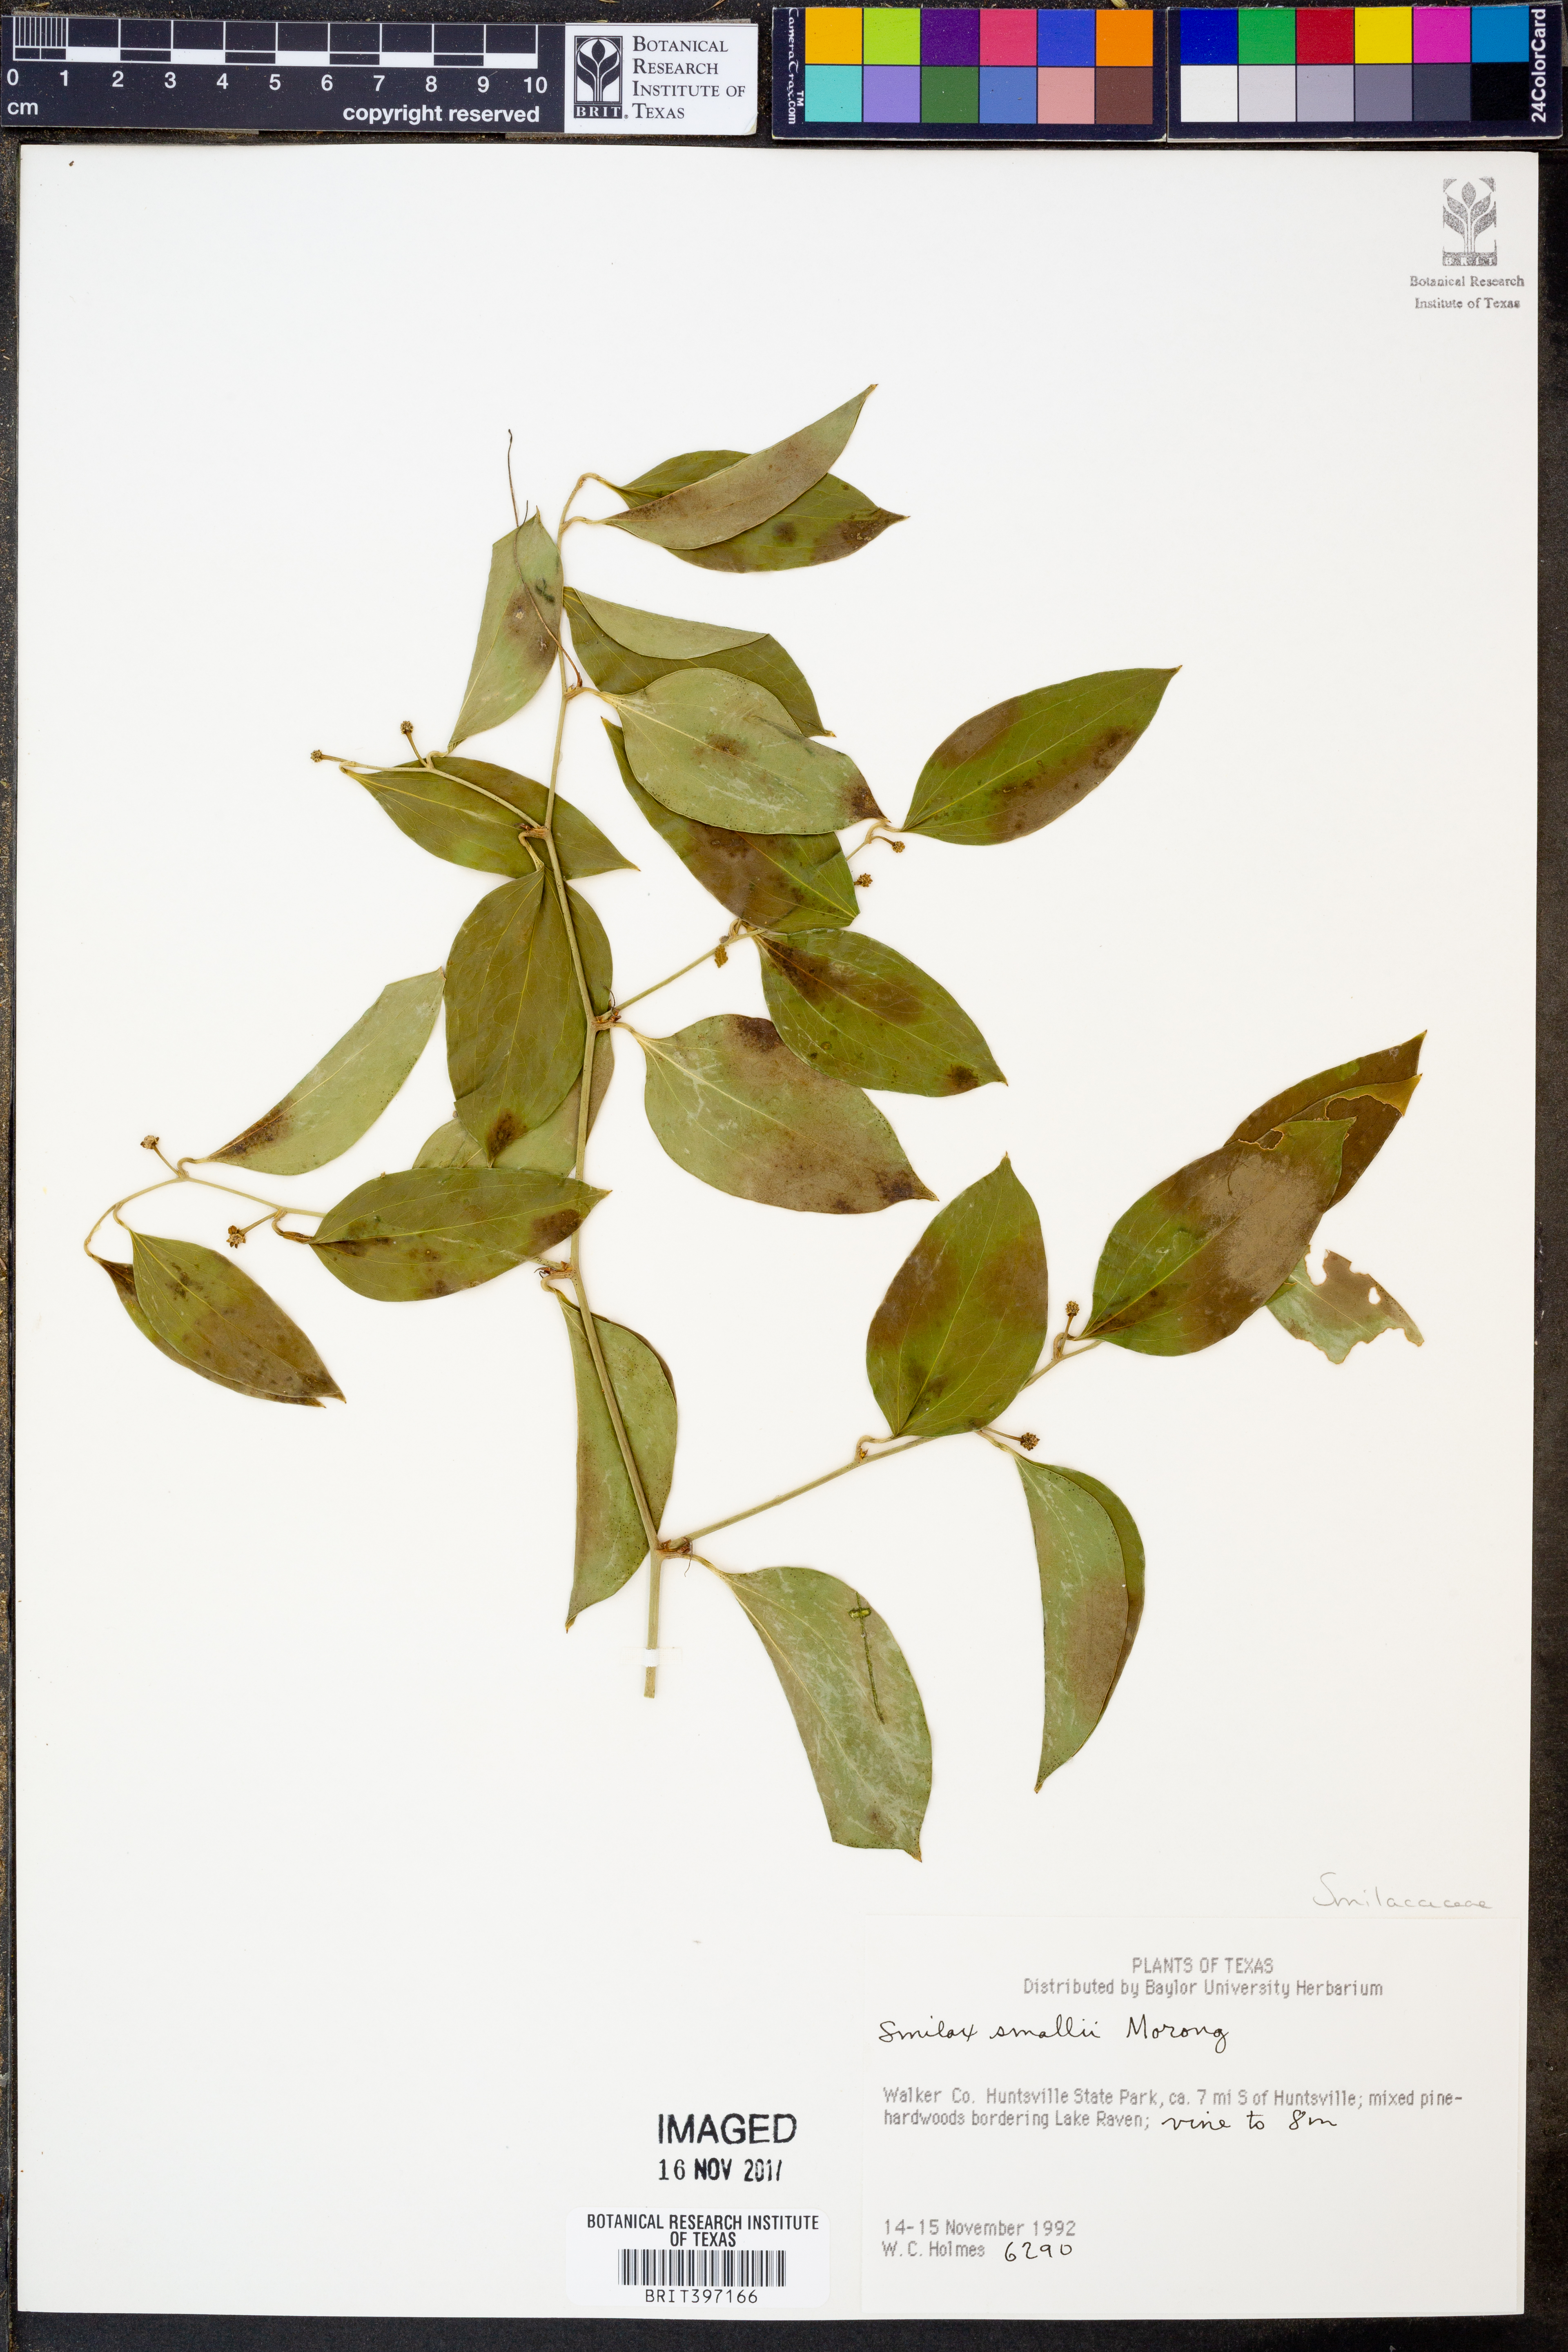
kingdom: Plantae
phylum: Tracheophyta
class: Liliopsida
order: Liliales
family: Smilacaceae
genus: Smilax
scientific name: Smilax maritima
